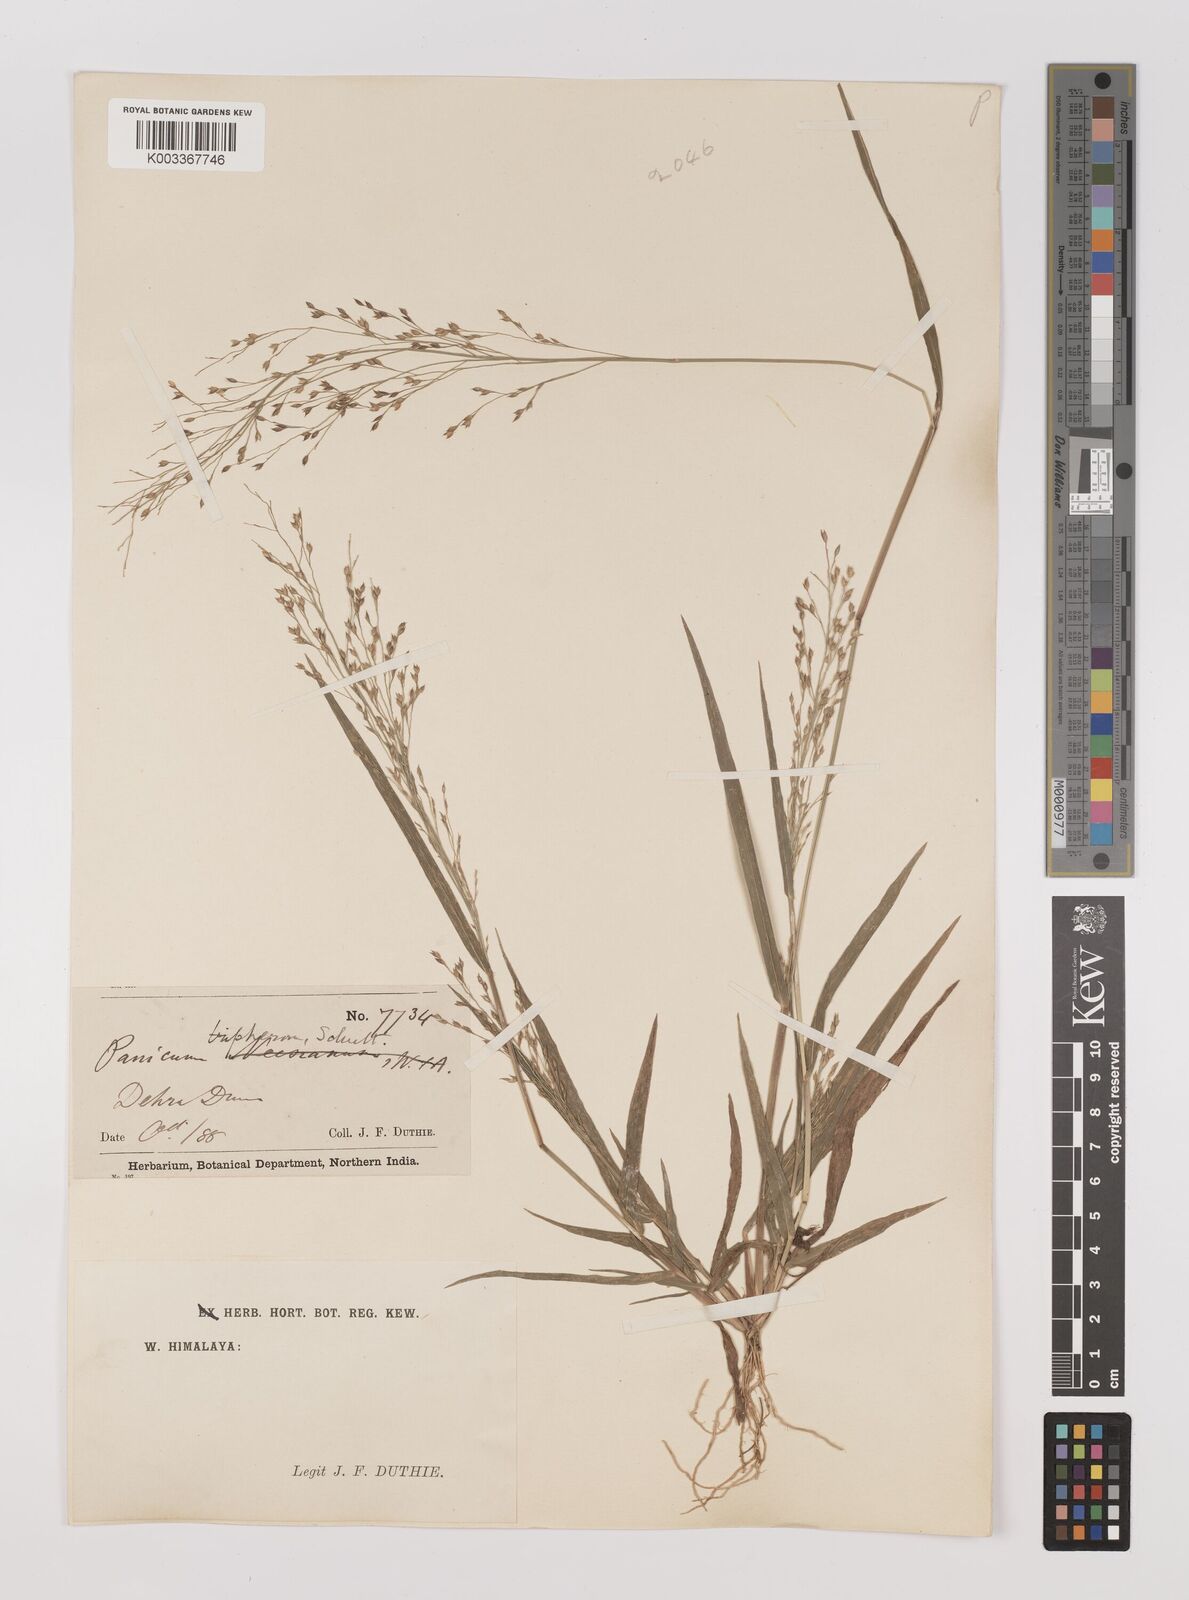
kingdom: Plantae
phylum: Tracheophyta
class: Liliopsida
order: Poales
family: Poaceae
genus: Panicum
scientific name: Panicum curviflorum
